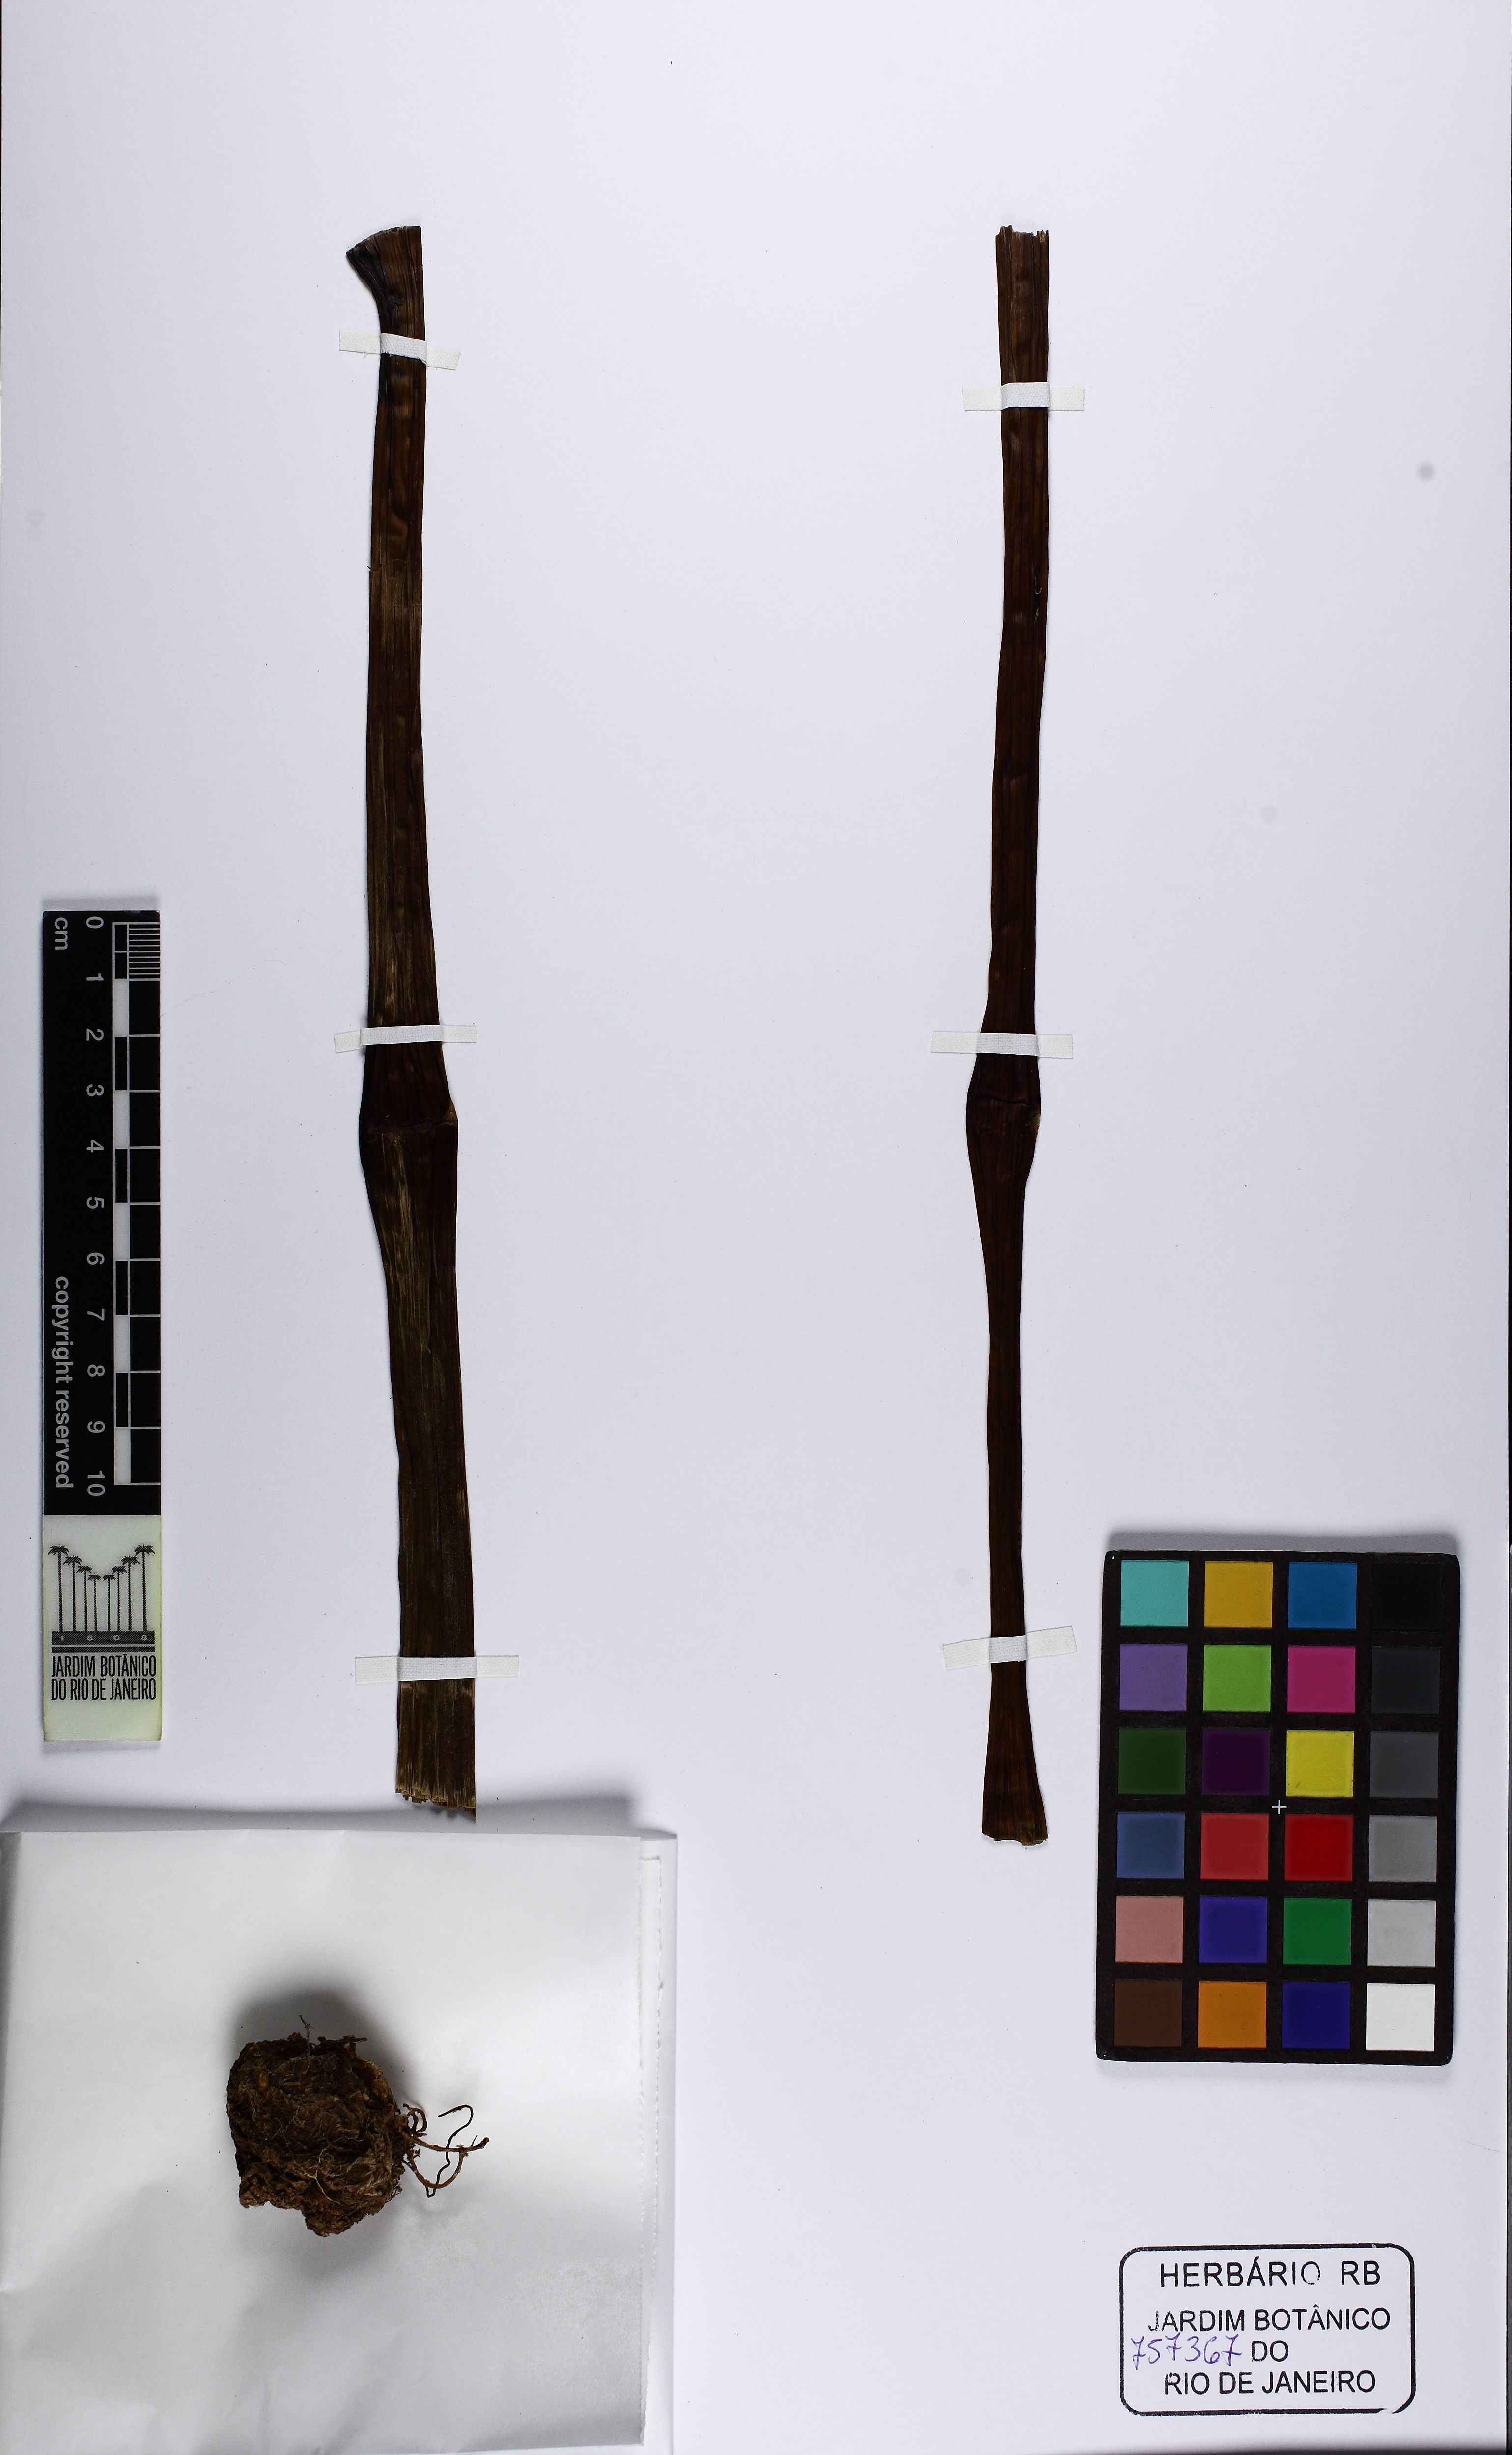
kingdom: Plantae
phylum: Tracheophyta
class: Liliopsida
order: Alismatales
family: Araceae
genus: Asterostigma
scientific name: Asterostigma
